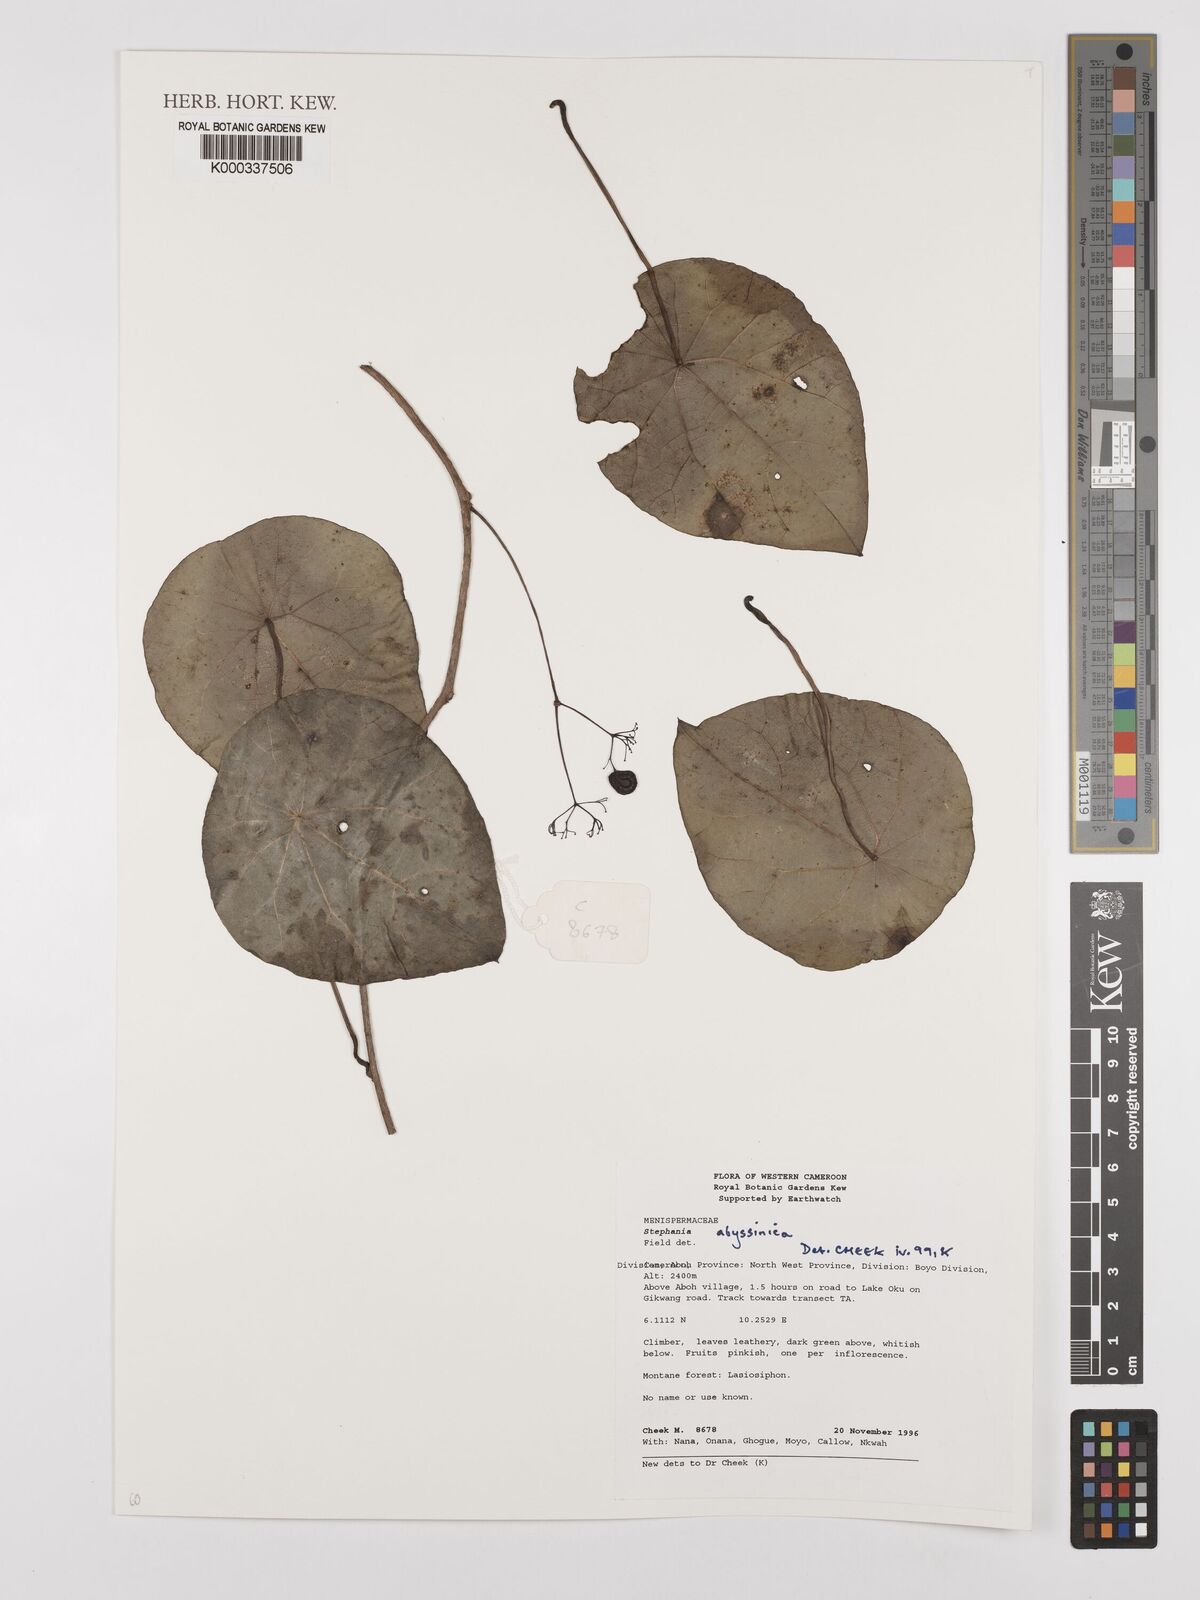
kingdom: Plantae
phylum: Tracheophyta
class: Magnoliopsida
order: Ranunculales
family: Menispermaceae
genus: Stephania
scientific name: Stephania
